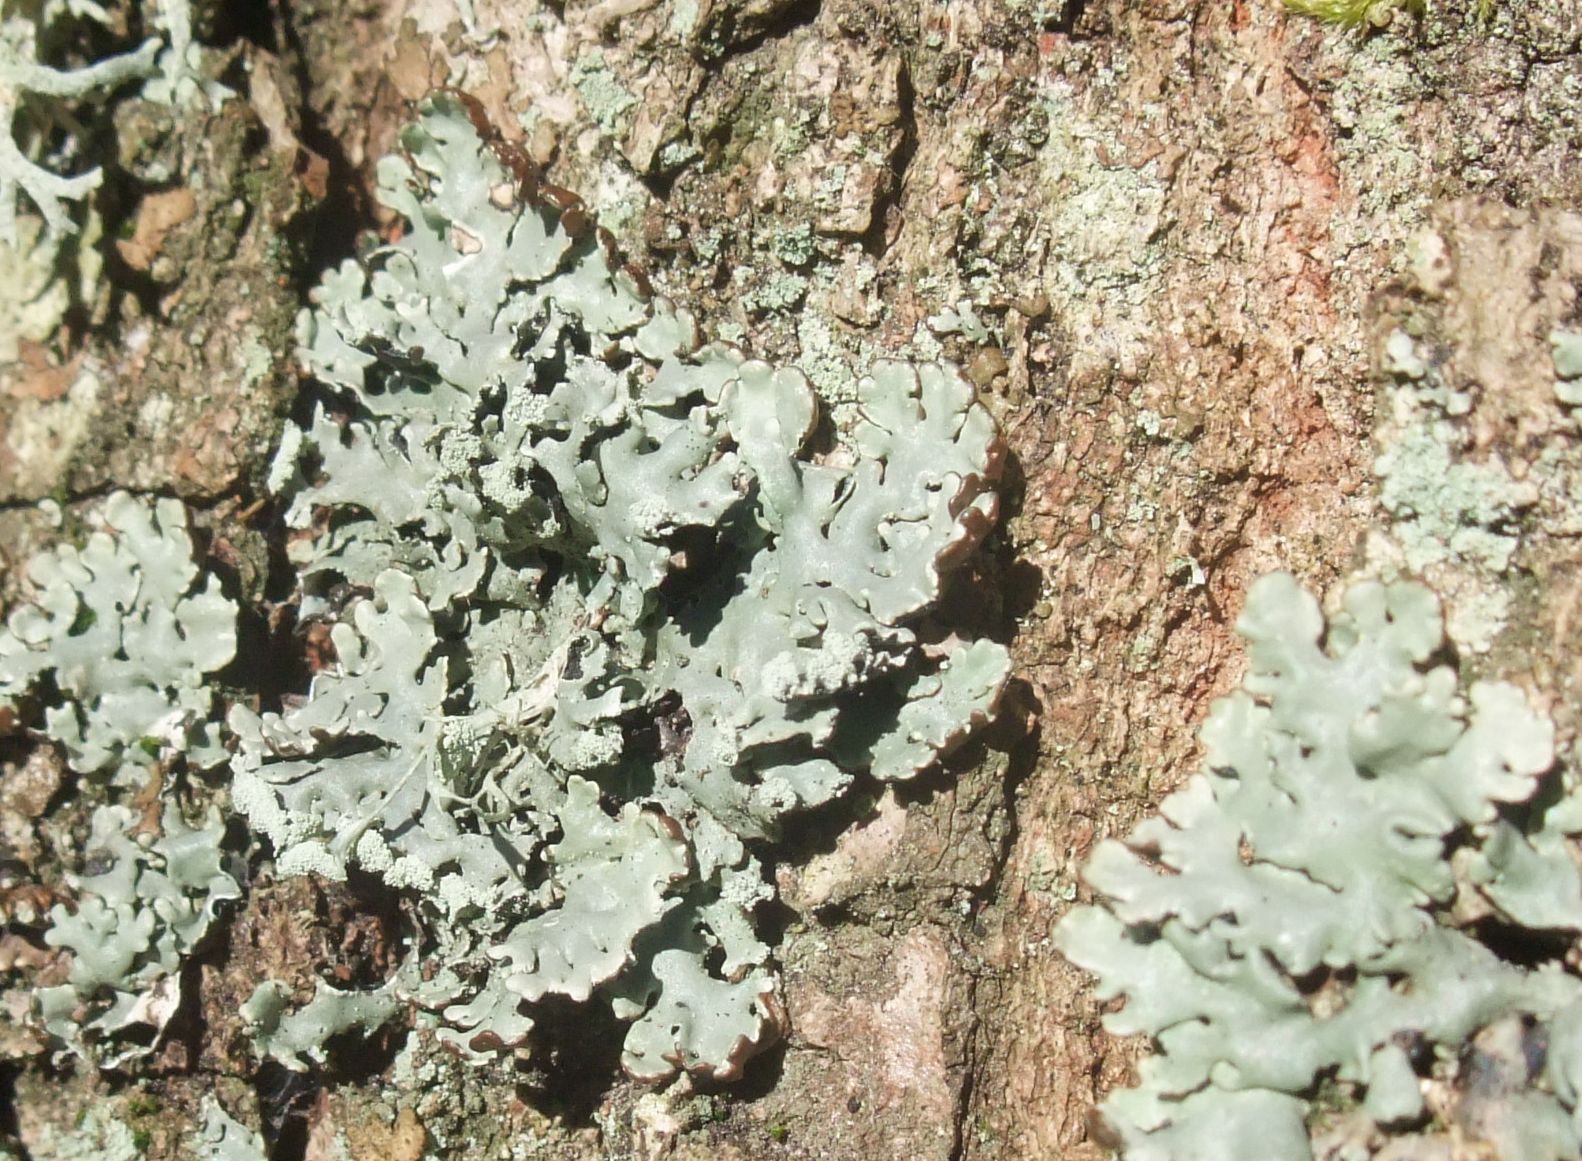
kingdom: Fungi
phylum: Ascomycota
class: Lecanoromycetes
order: Lecanorales
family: Parmeliaceae
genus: Hypogymnia
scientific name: Hypogymnia physodes
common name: almindelig kvistlav
